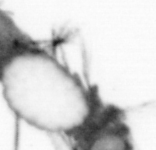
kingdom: Animalia
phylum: Annelida
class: Polychaeta
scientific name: Polychaeta
